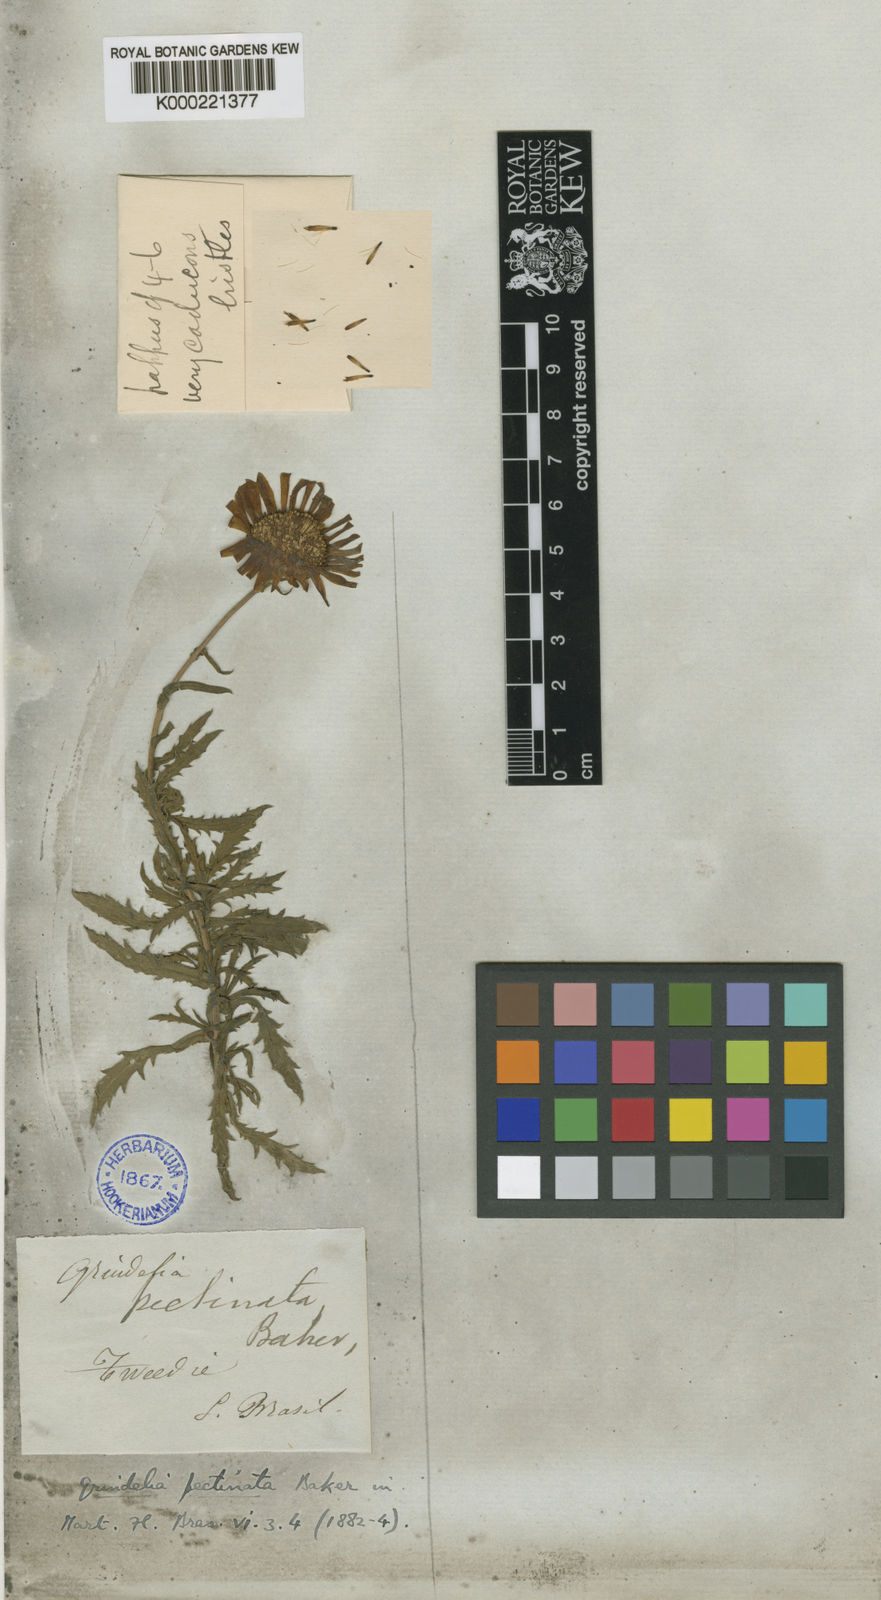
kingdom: Plantae
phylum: Tracheophyta
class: Magnoliopsida
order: Asterales
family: Asteraceae
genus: Grindelia
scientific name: Grindelia scorzonerifolia
